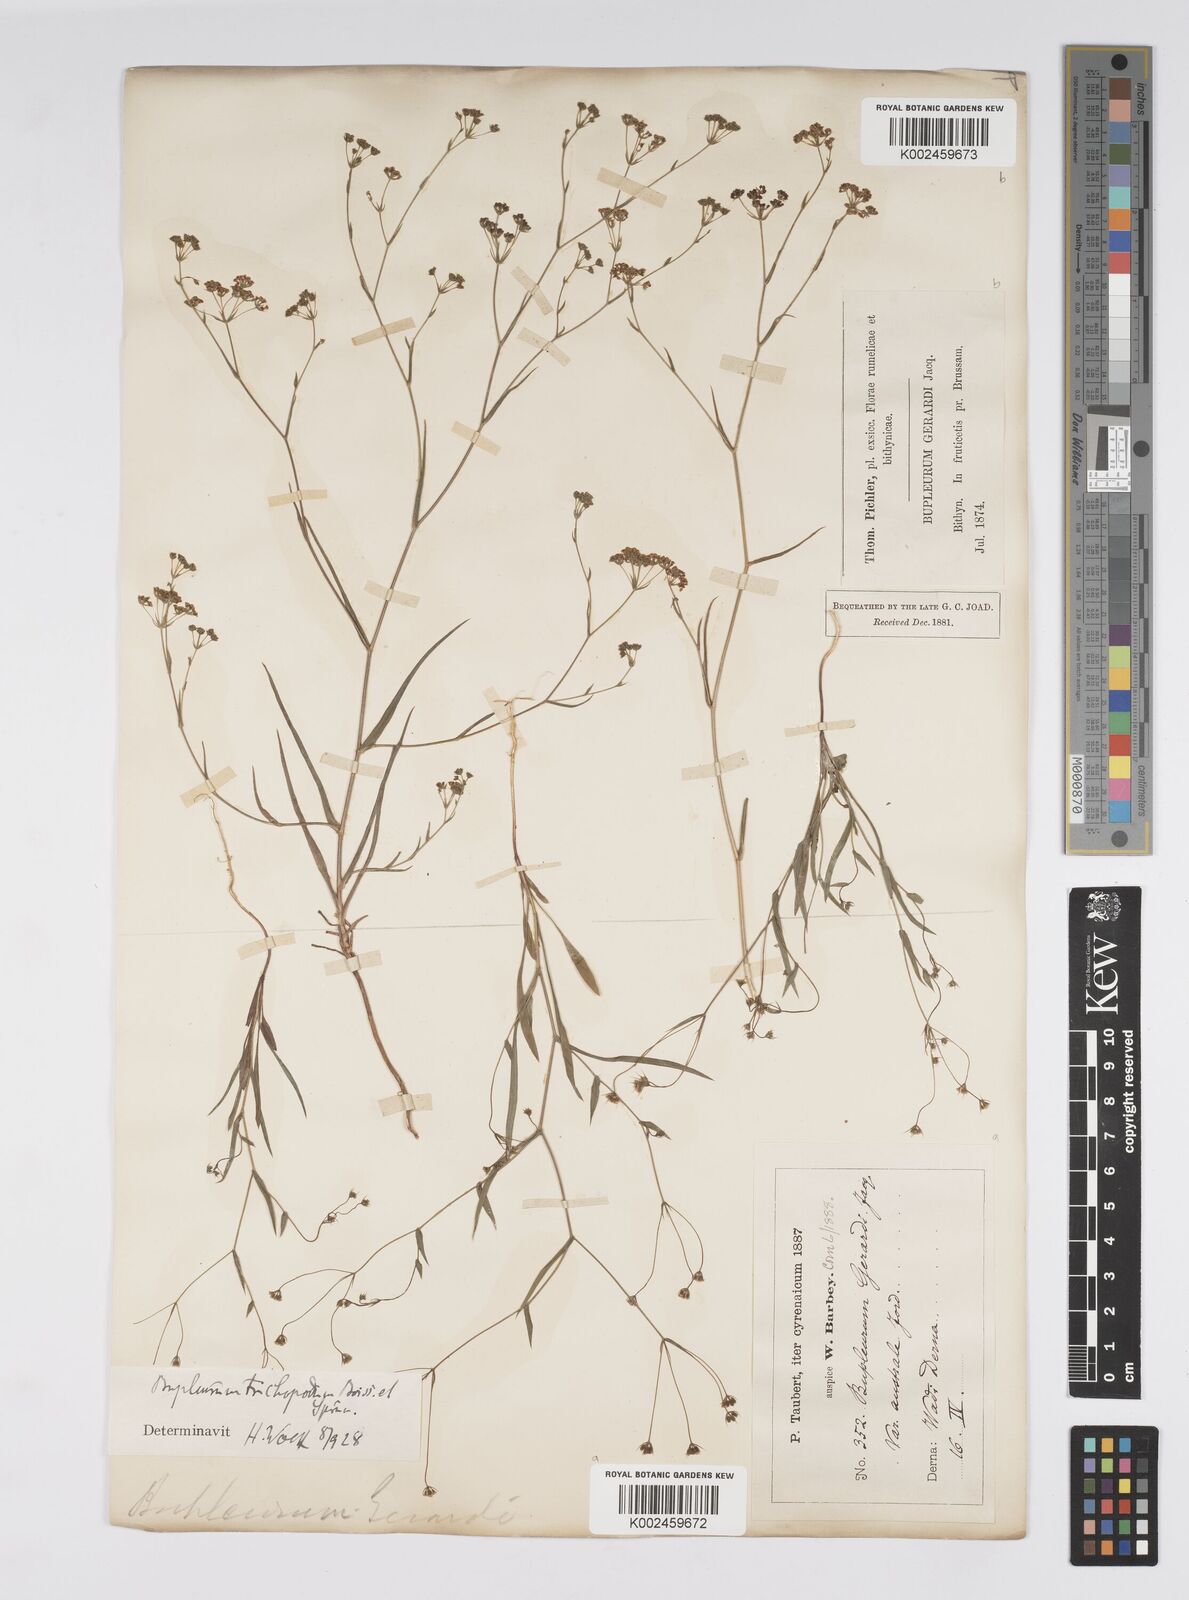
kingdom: Plantae
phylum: Tracheophyta
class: Magnoliopsida
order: Apiales
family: Apiaceae
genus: Bupleurum
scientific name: Bupleurum gerardi
